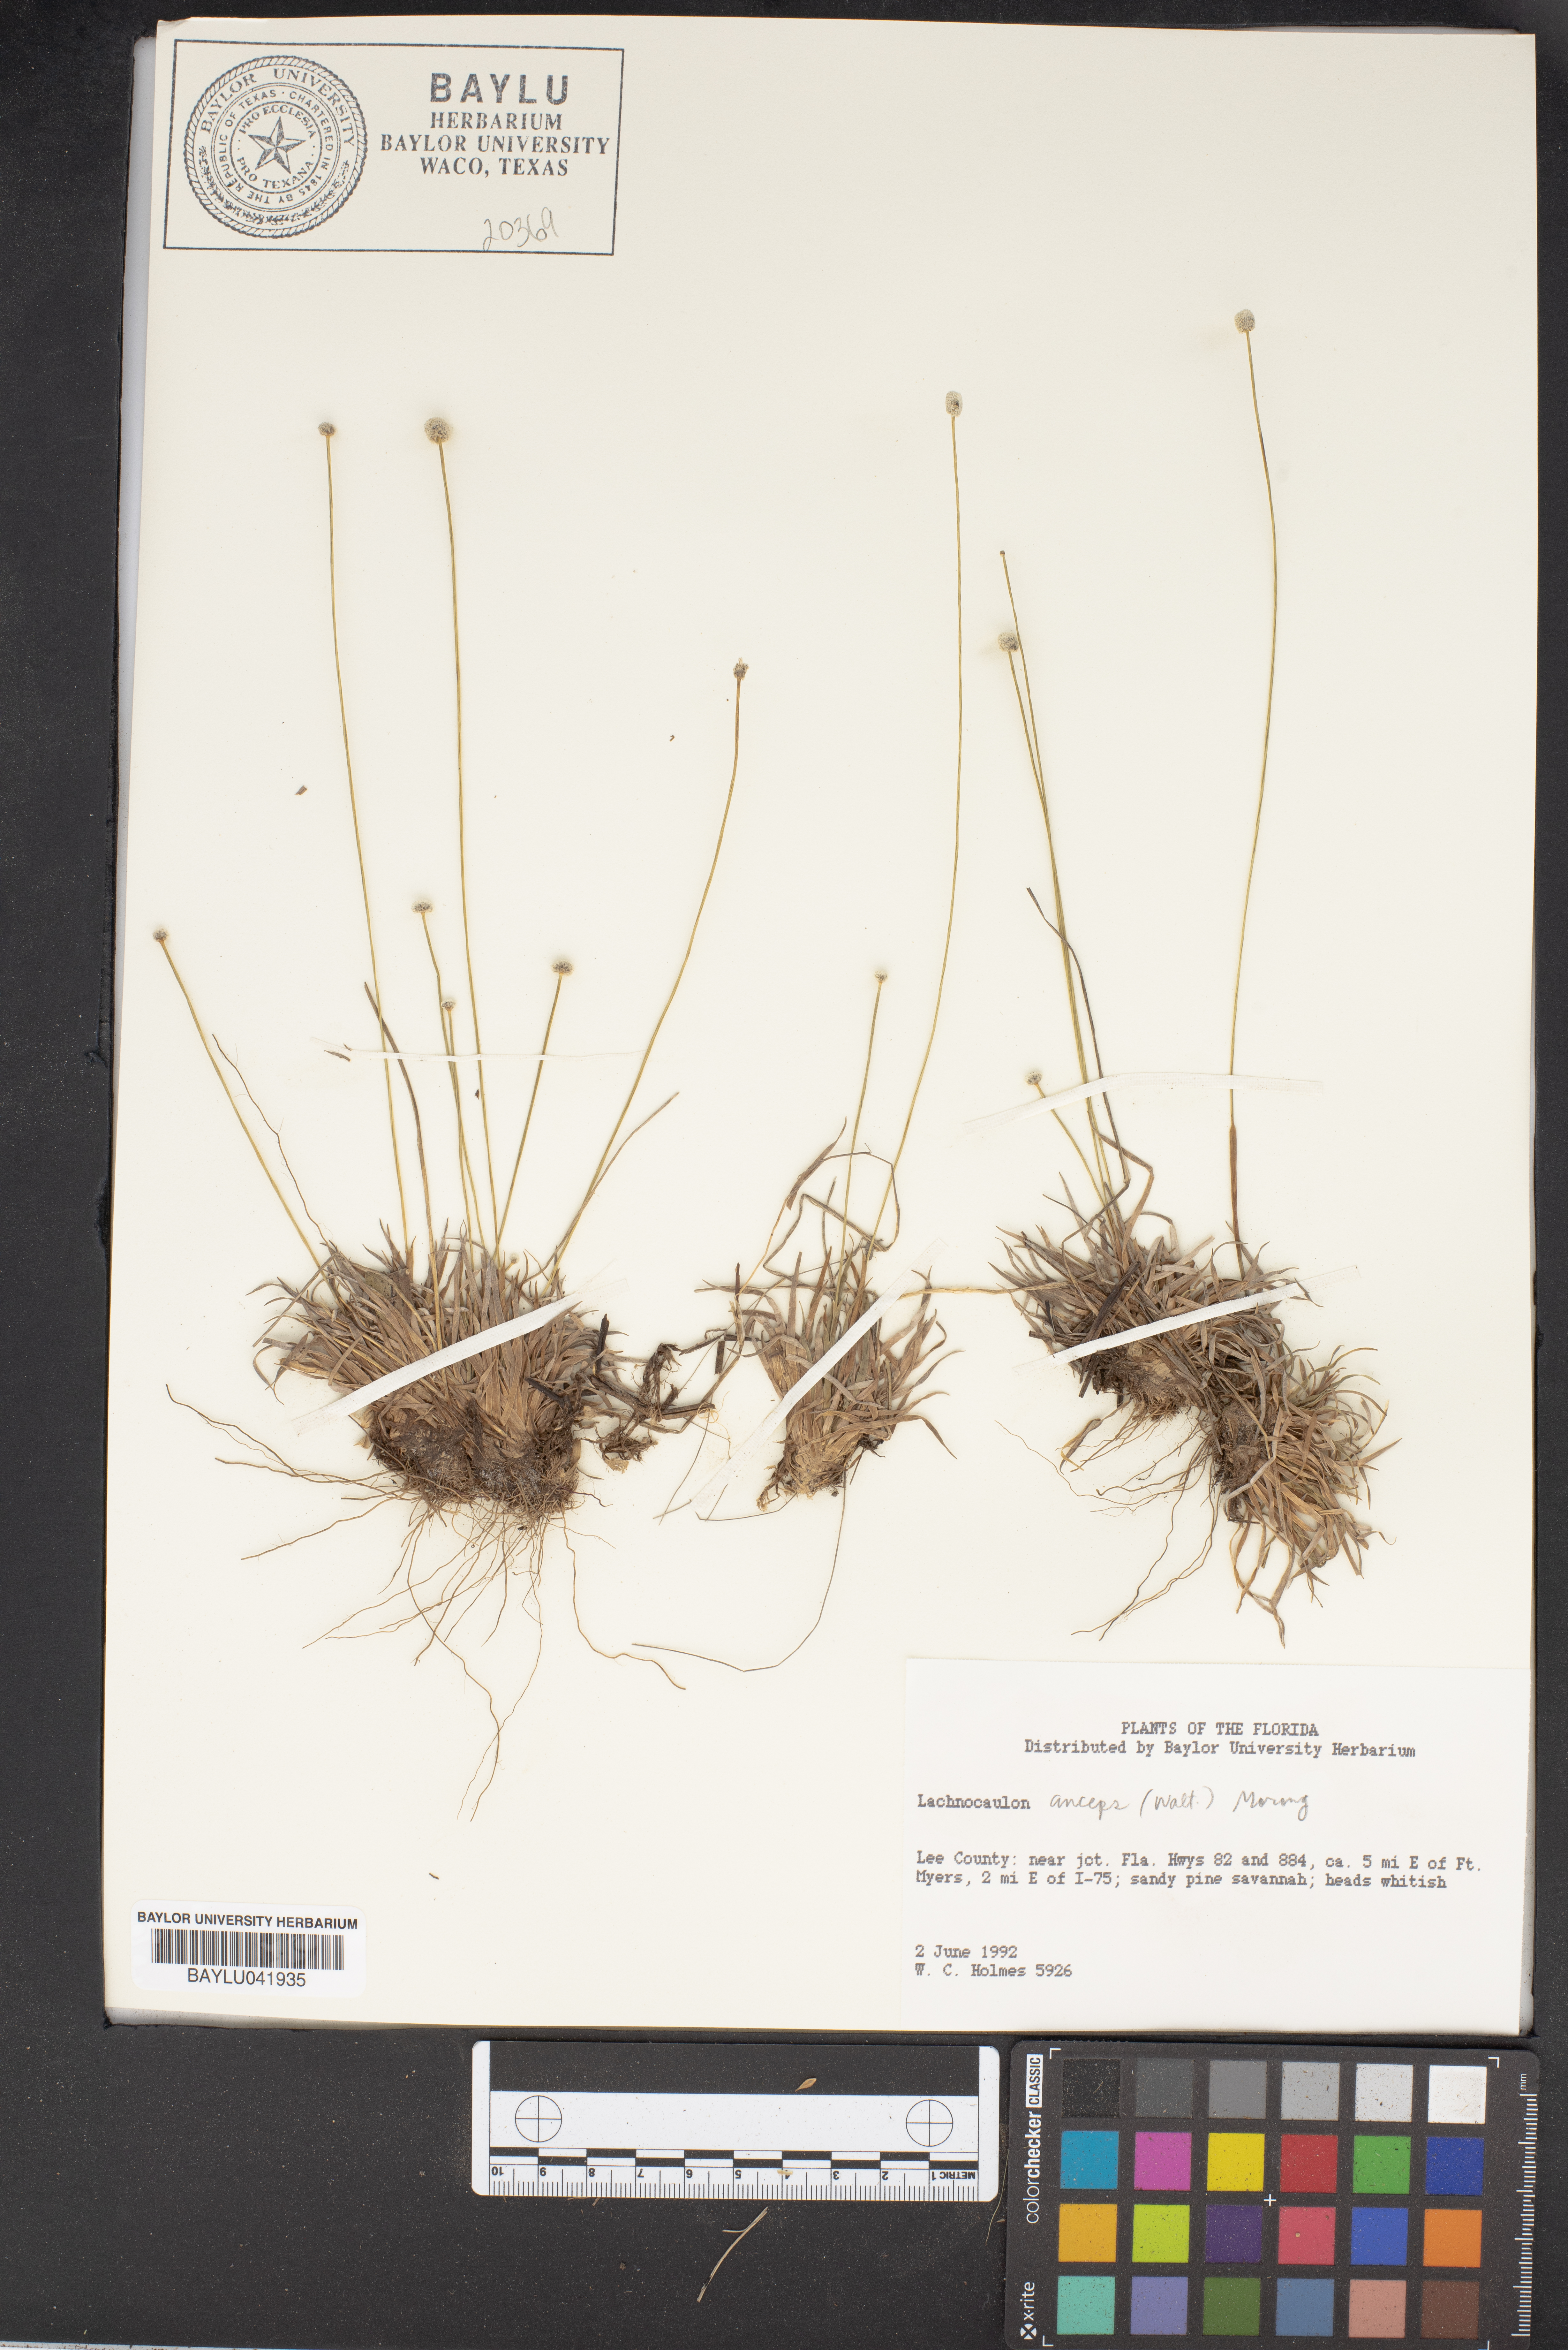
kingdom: Plantae
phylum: Tracheophyta
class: Liliopsida
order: Poales
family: Eriocaulaceae
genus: Paepalanthus
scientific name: Paepalanthus anceps
